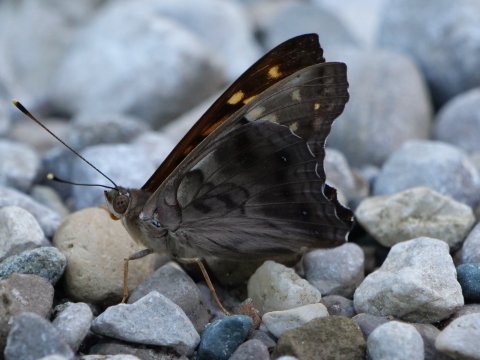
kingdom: Animalia
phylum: Arthropoda
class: Insecta
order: Lepidoptera
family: Nymphalidae
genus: Asterocampa
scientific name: Asterocampa clyton
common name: Tawny Emperor
